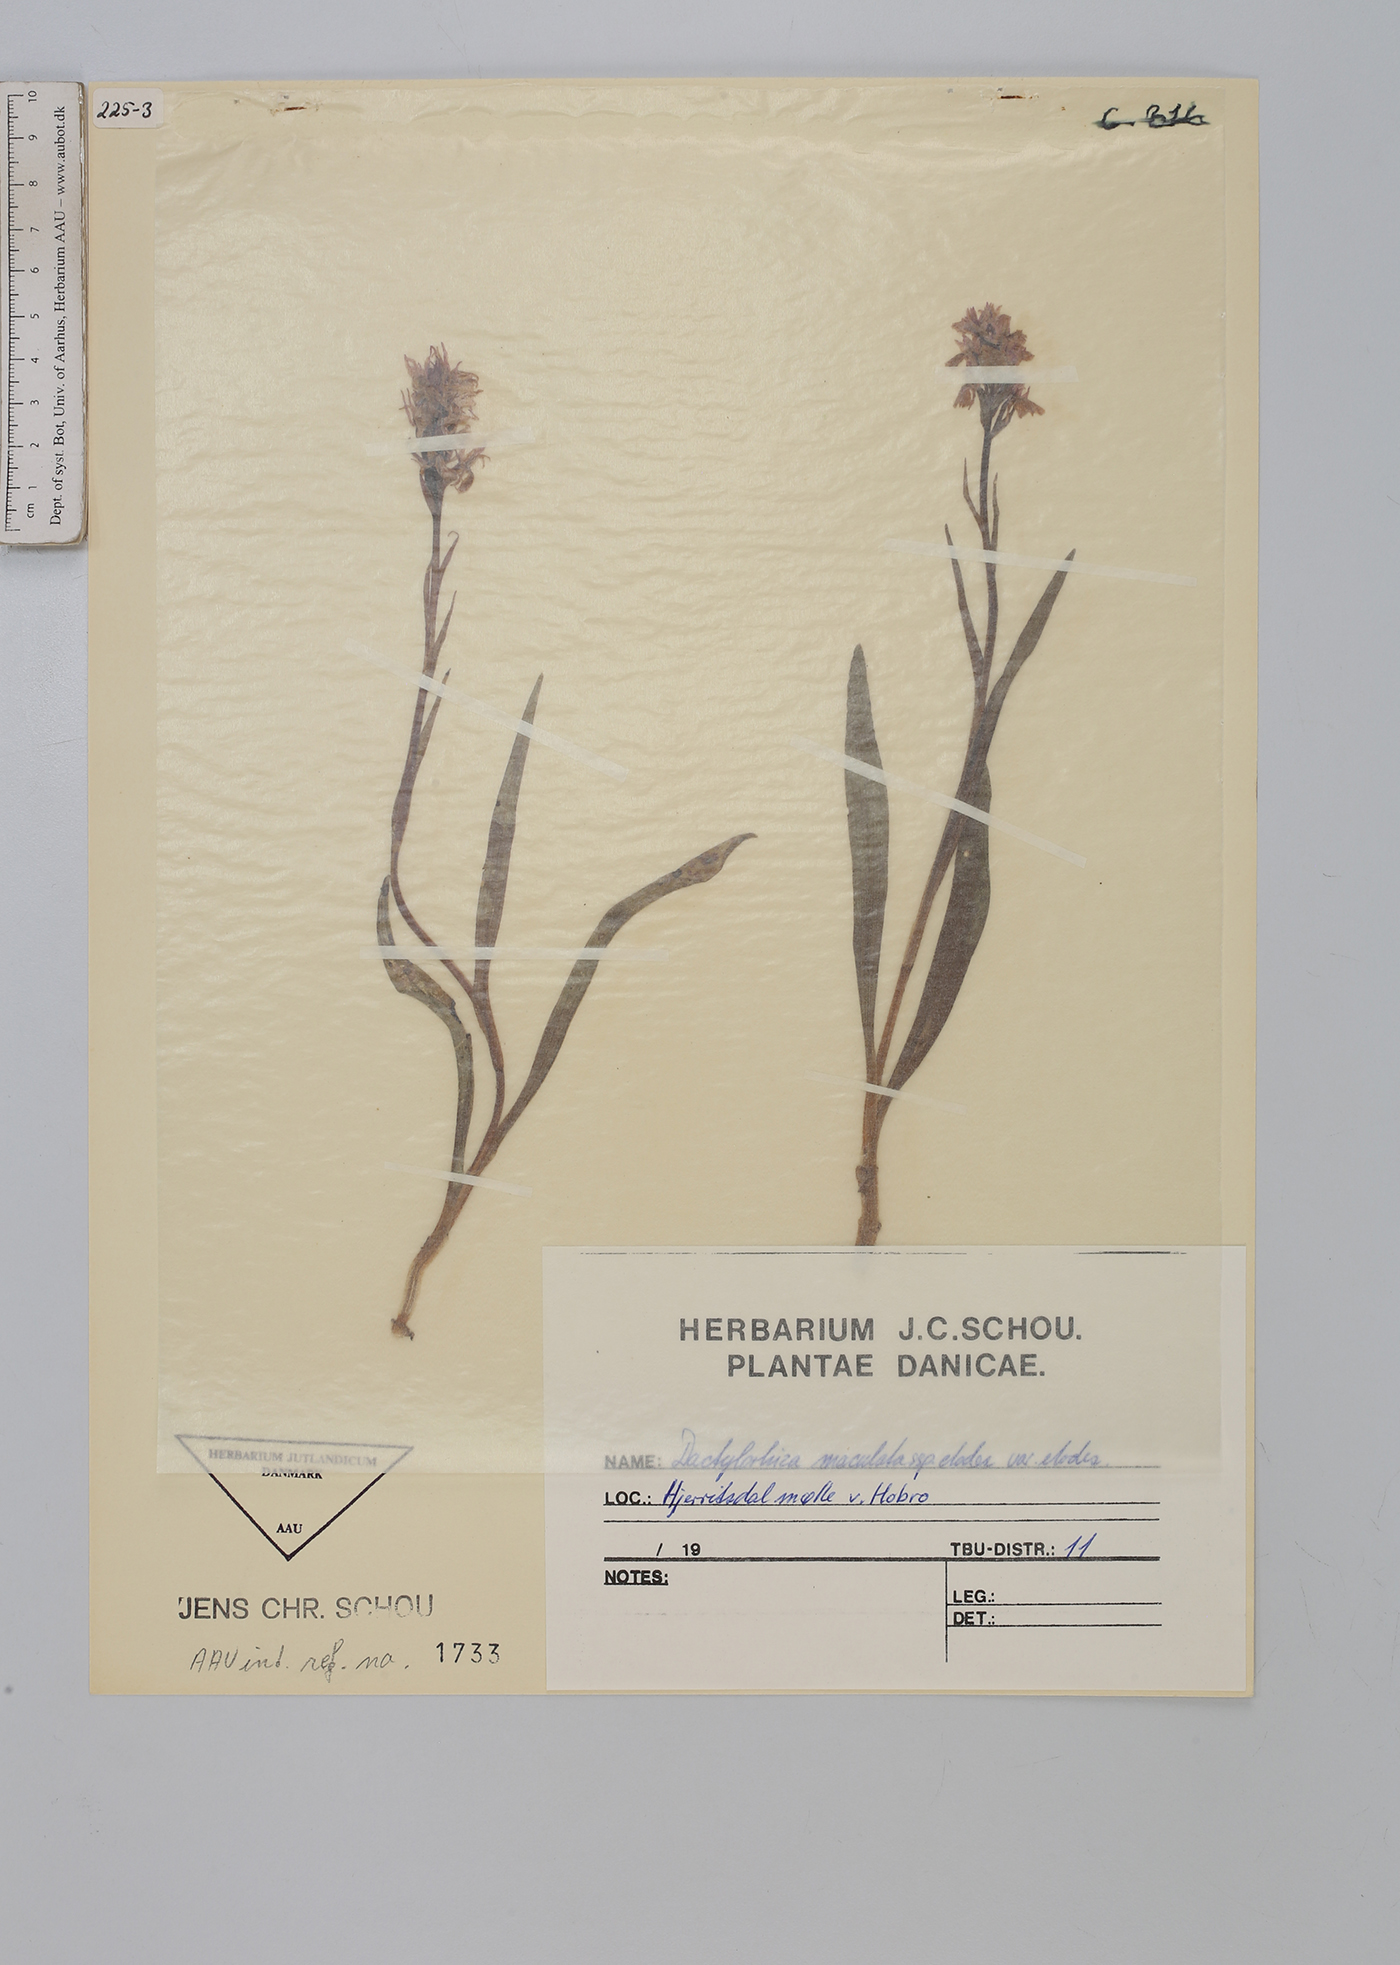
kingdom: Plantae
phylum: Tracheophyta
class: Liliopsida
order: Asparagales
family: Orchidaceae
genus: Dactylorhiza
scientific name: Dactylorhiza maculata
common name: Heath spotted-orchid
